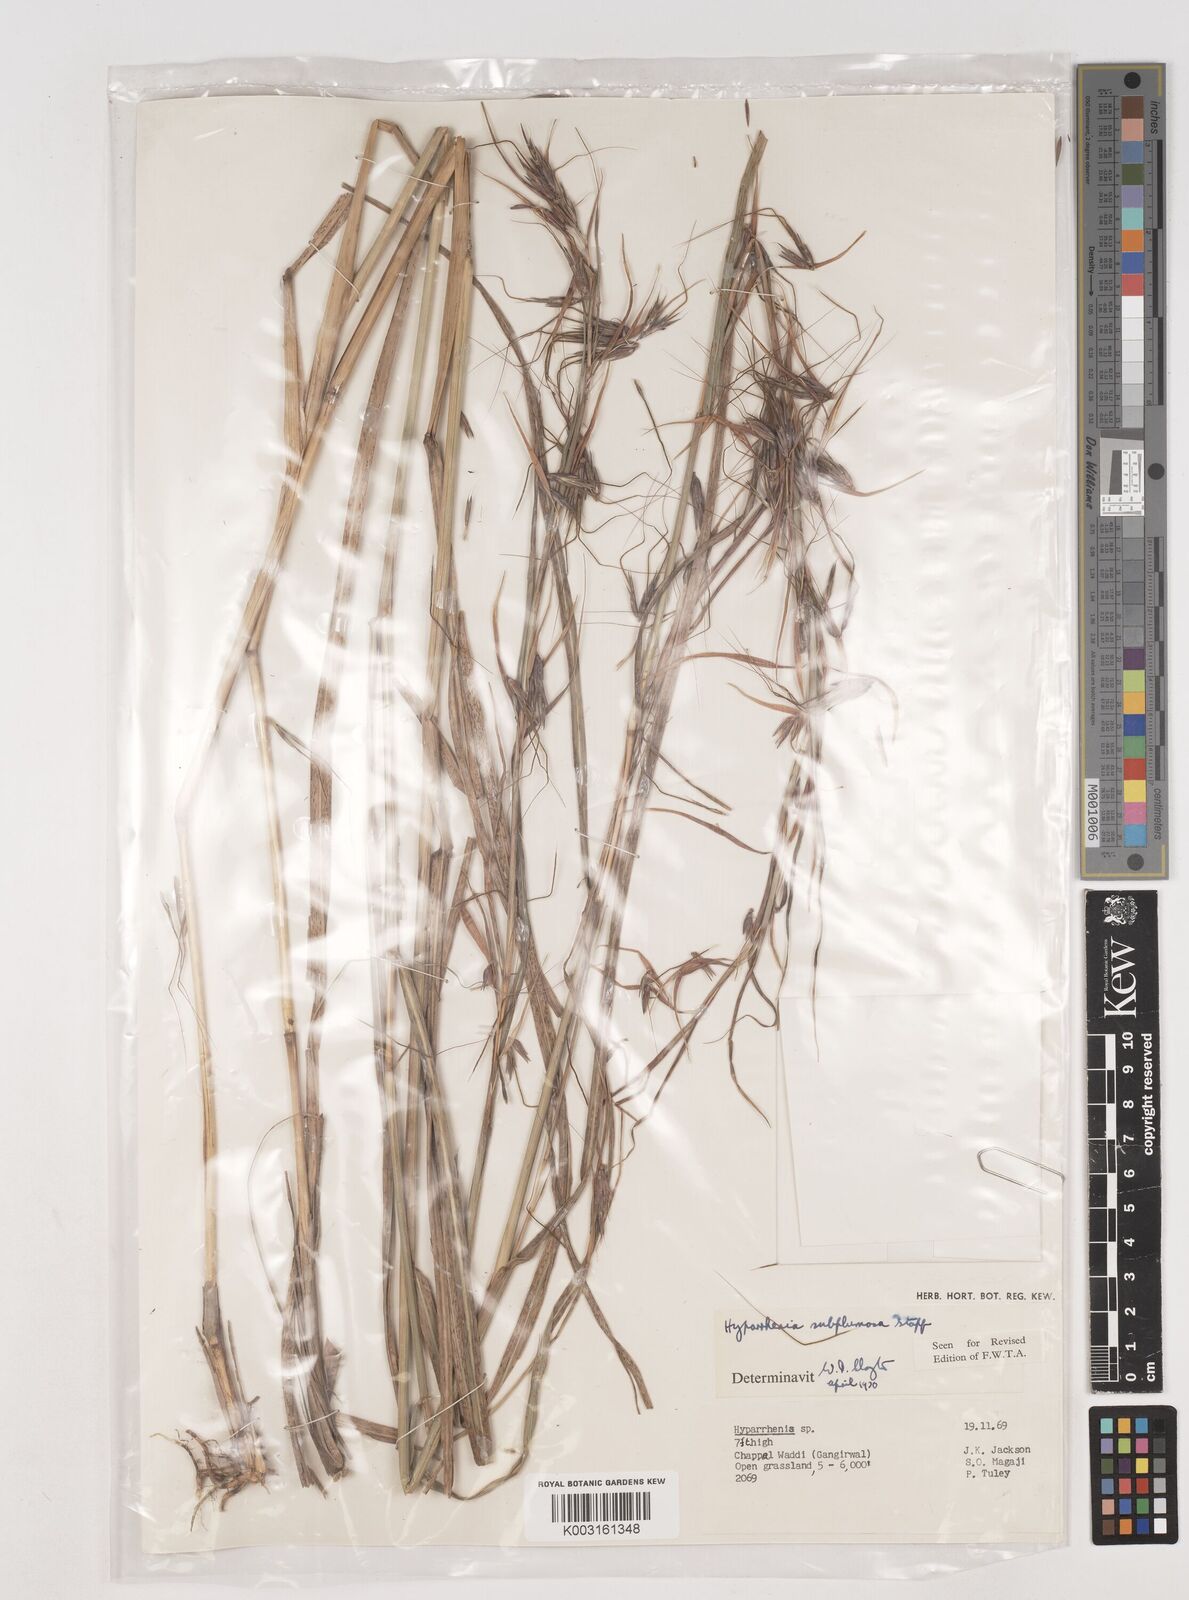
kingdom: Plantae
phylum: Tracheophyta
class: Liliopsida
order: Poales
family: Poaceae
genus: Hyparrhenia
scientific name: Hyparrhenia subplumosa
